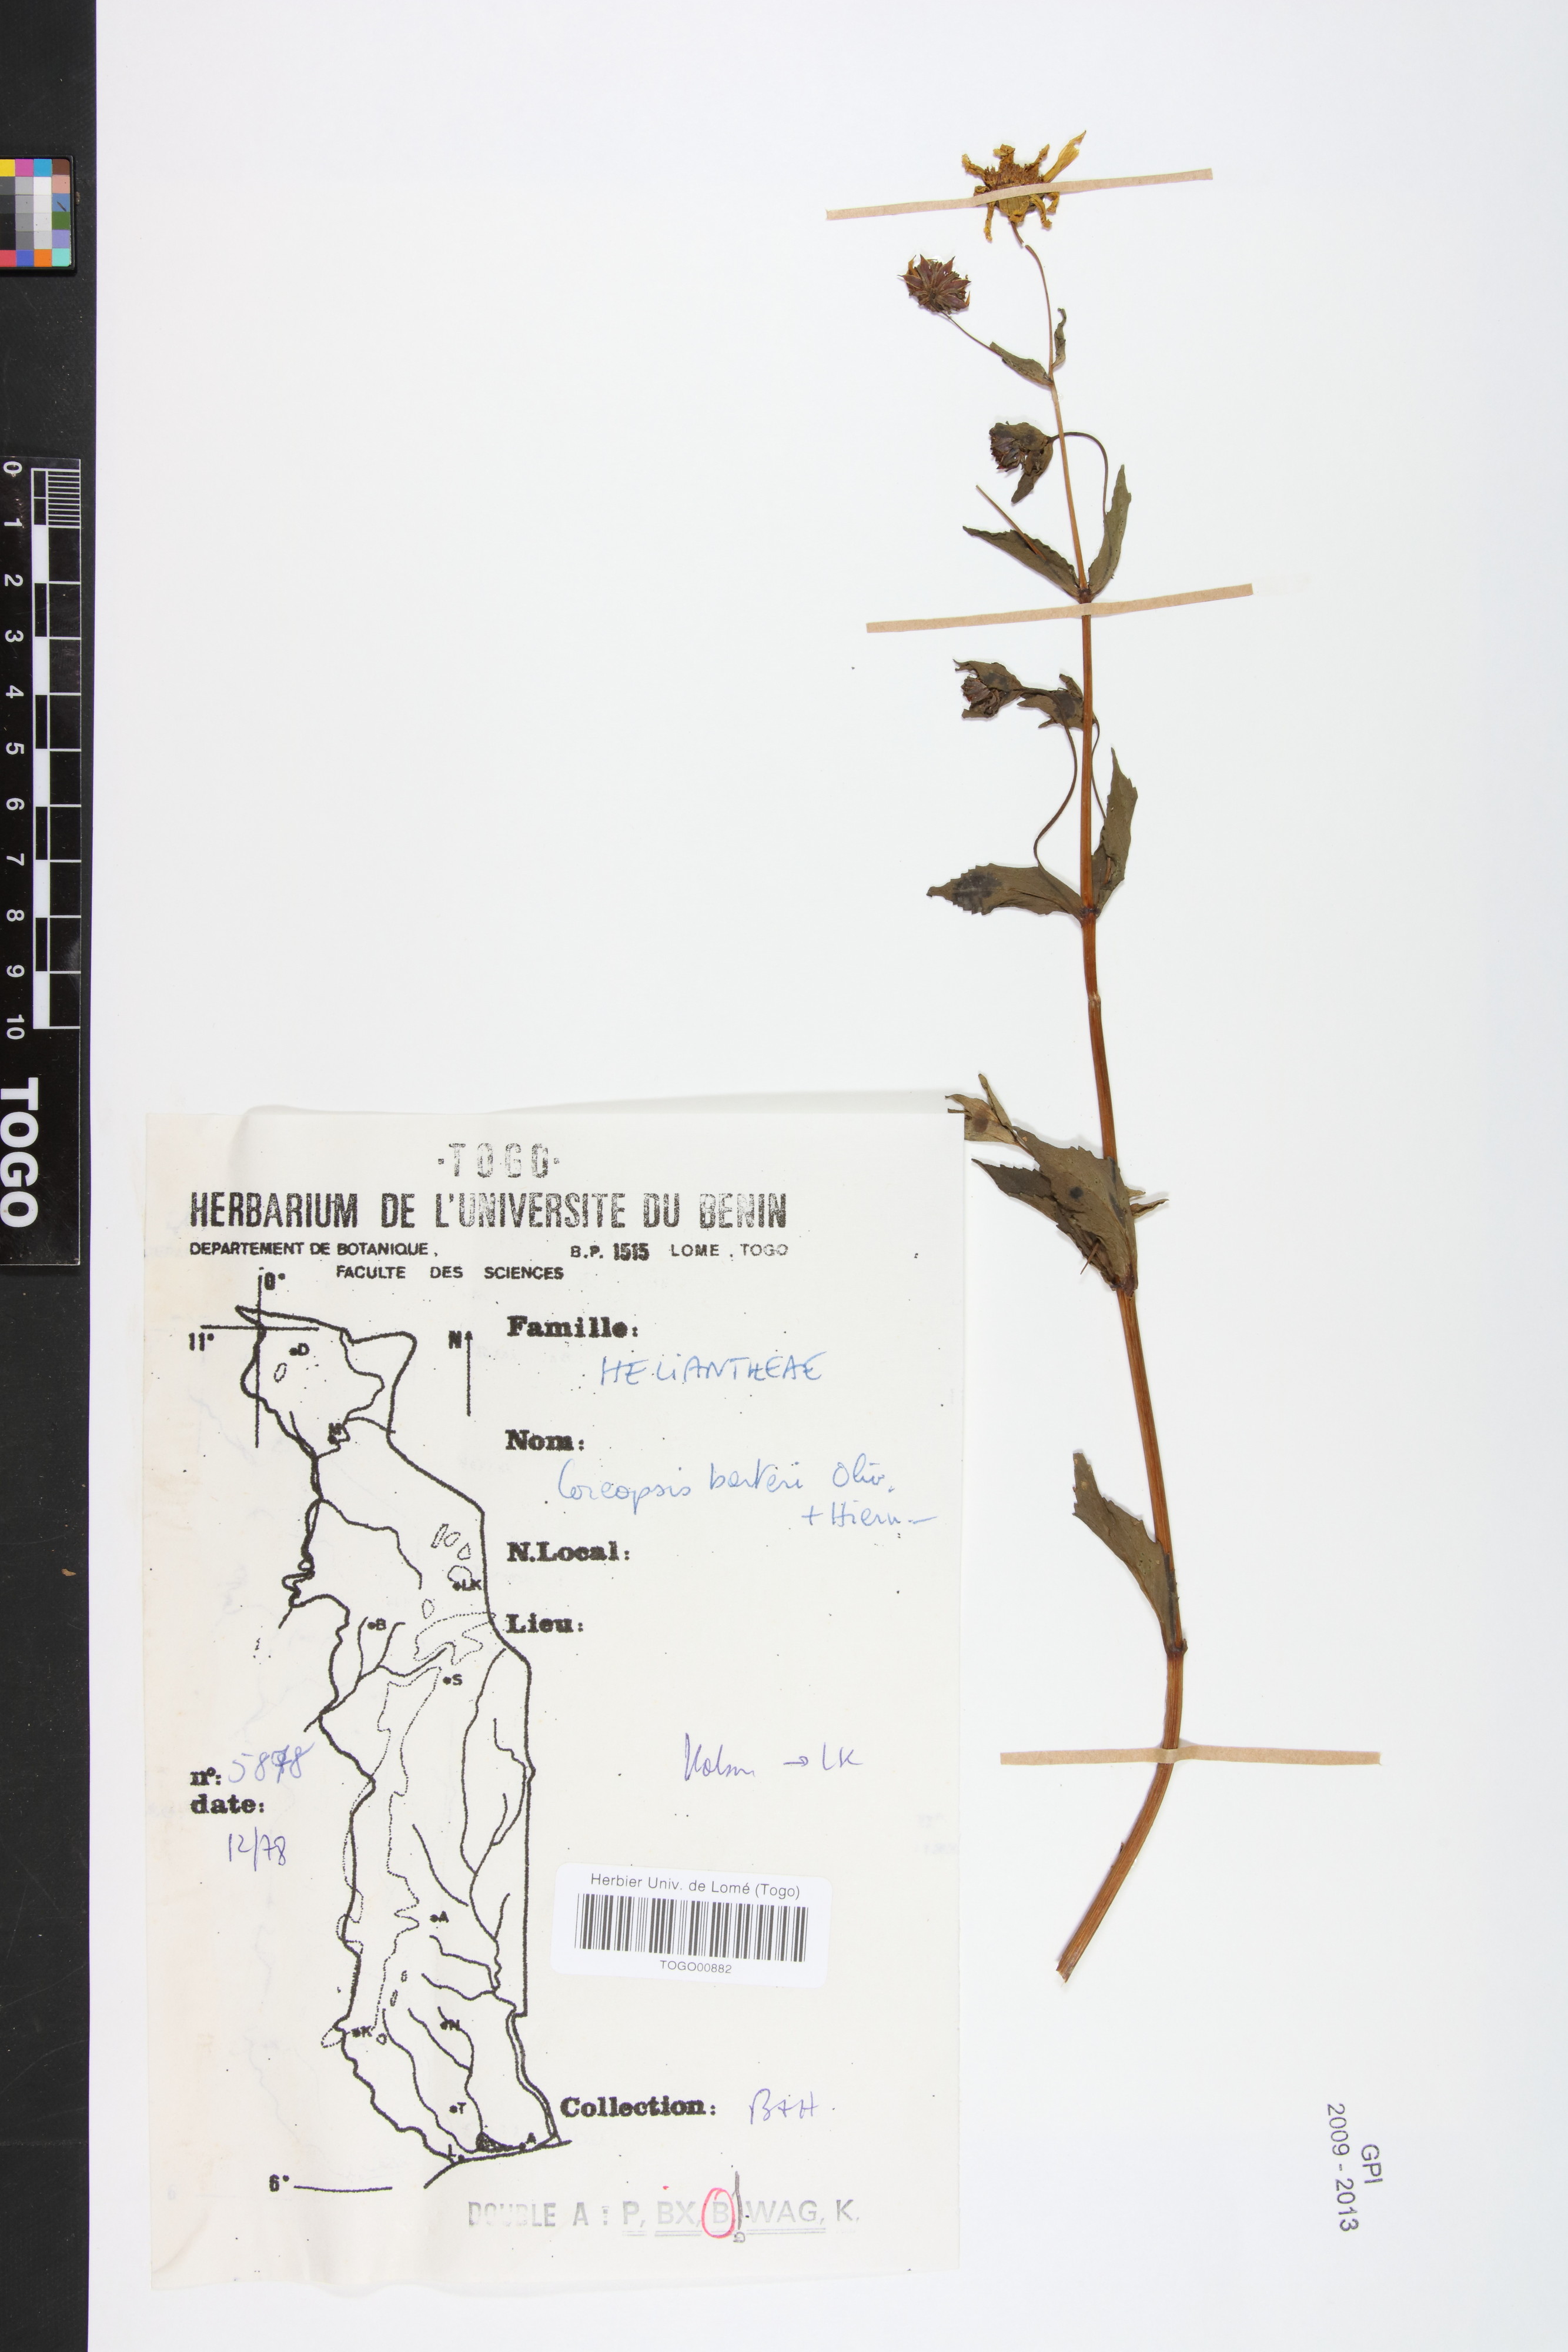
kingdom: Plantae
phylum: Tracheophyta
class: Magnoliopsida
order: Asterales
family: Asteraceae
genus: Bidens
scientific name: Bidens barteri
